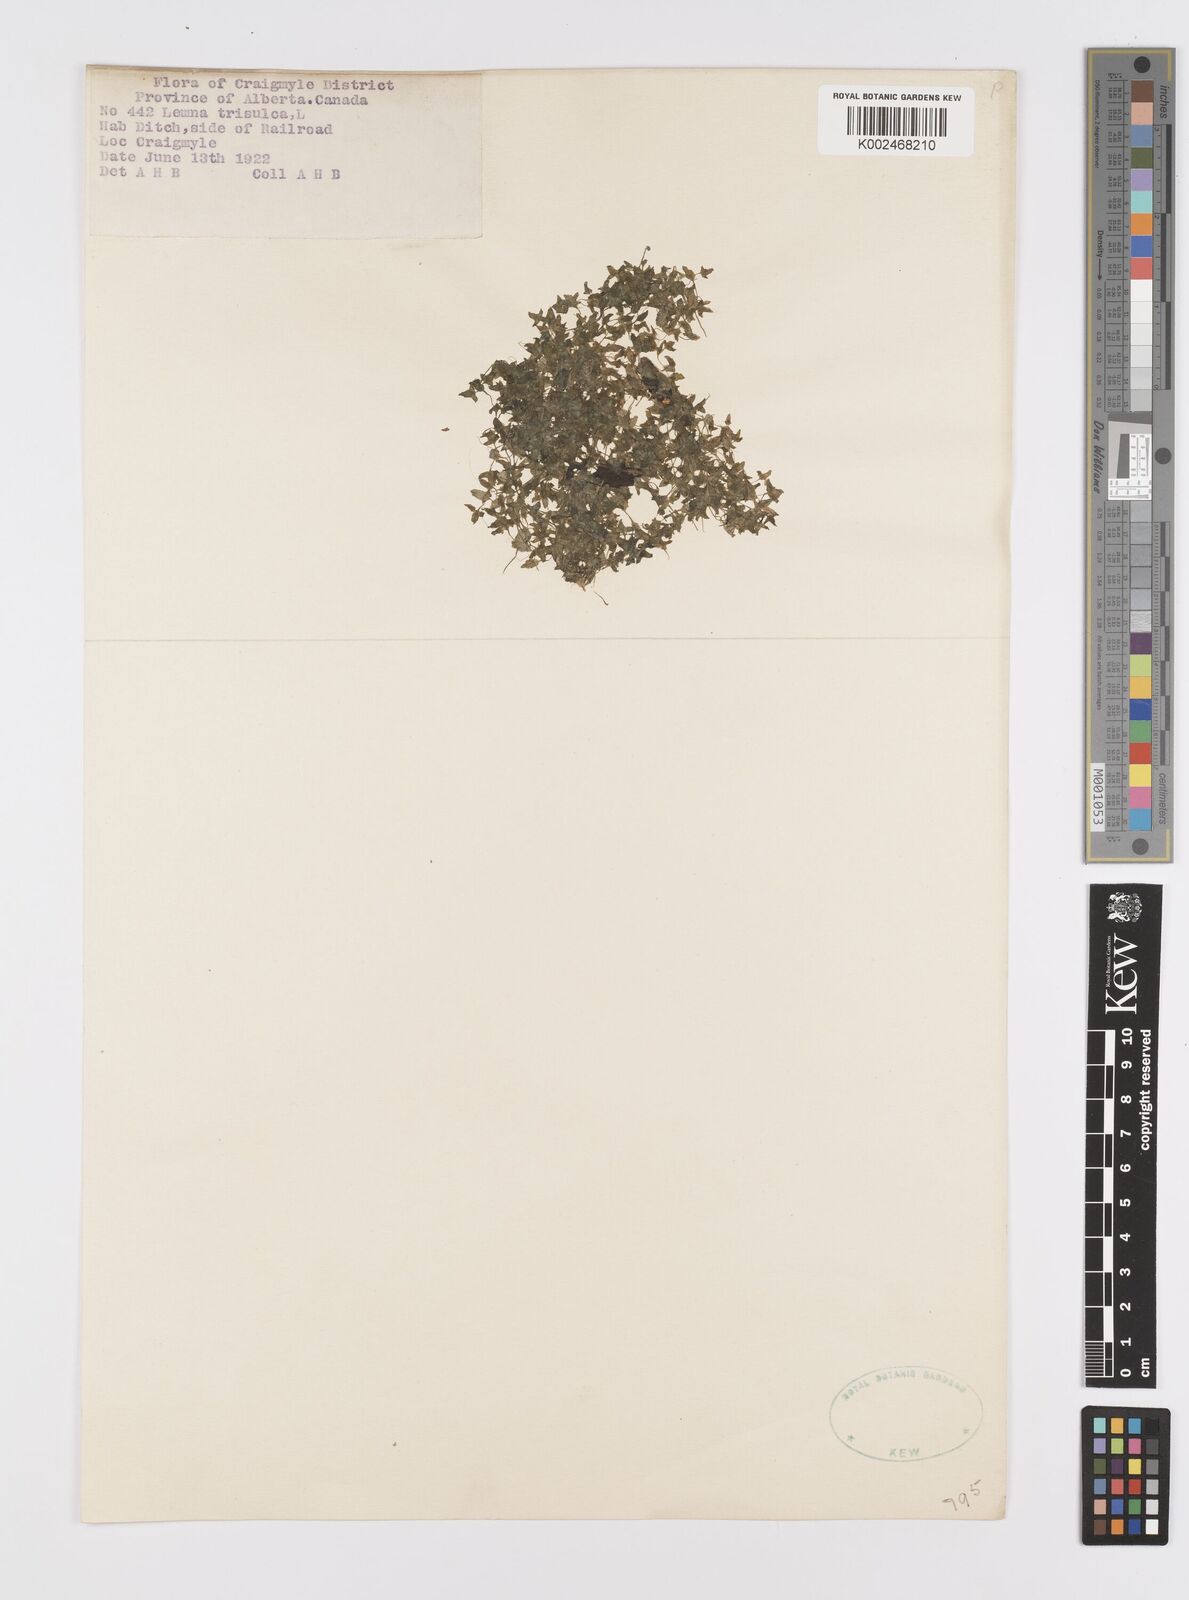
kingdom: Plantae
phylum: Tracheophyta
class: Liliopsida
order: Alismatales
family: Araceae
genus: Lemna
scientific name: Lemna trisulca
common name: Ivy-leaved duckweed
